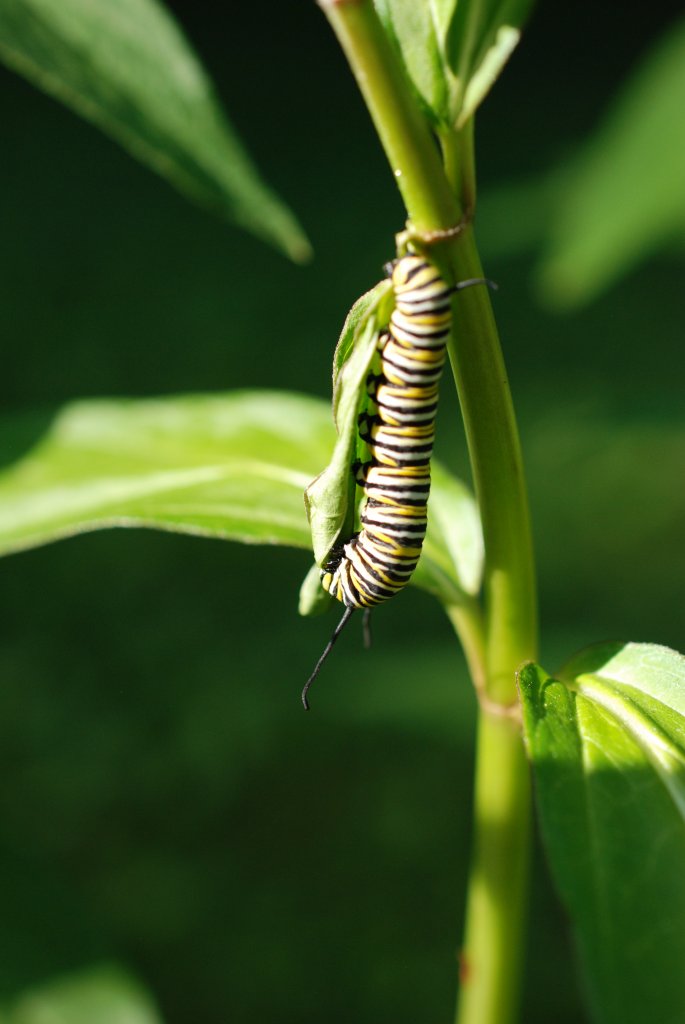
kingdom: Animalia
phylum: Arthropoda
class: Insecta
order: Lepidoptera
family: Nymphalidae
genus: Danaus
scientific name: Danaus plexippus
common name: Monarch
